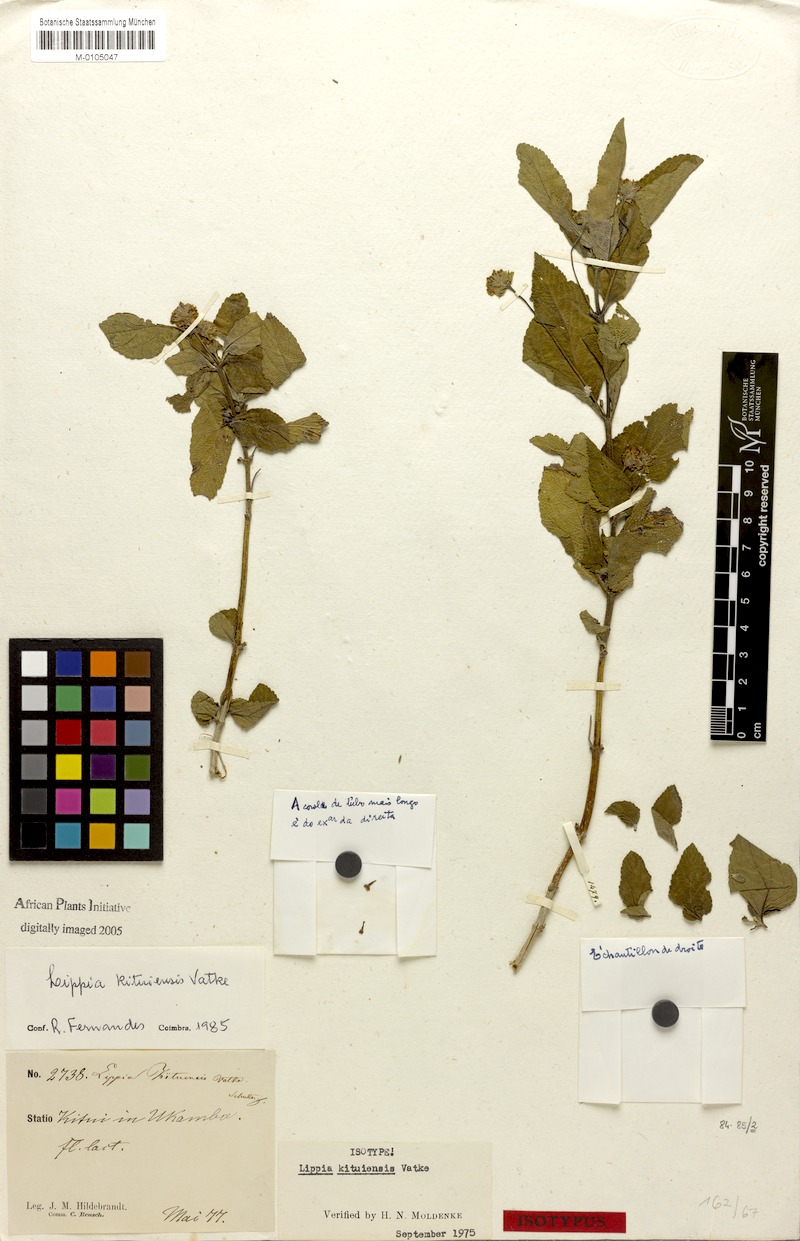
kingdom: Plantae
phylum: Tracheophyta
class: Magnoliopsida
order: Lamiales
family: Verbenaceae
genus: Lippia
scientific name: Lippia kituiensis
